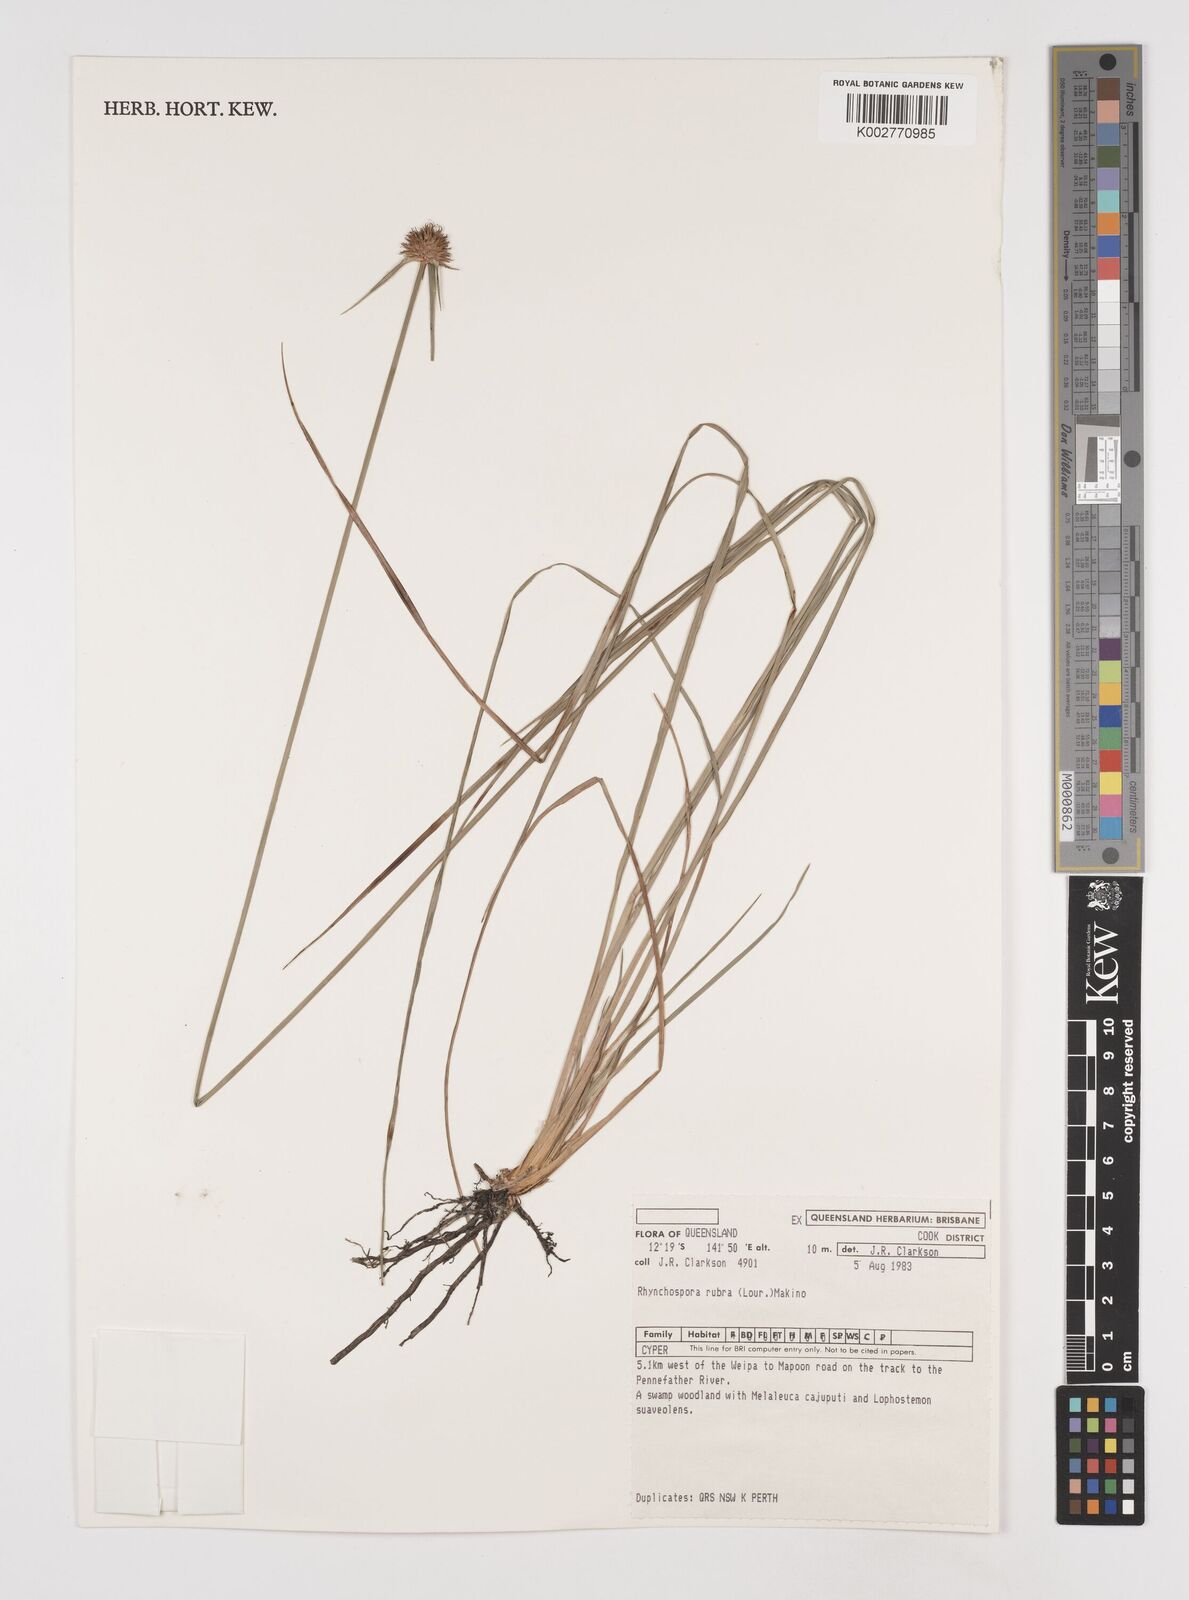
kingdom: Plantae
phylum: Tracheophyta
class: Liliopsida
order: Poales
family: Cyperaceae
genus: Rhynchospora
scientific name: Rhynchospora rubra
